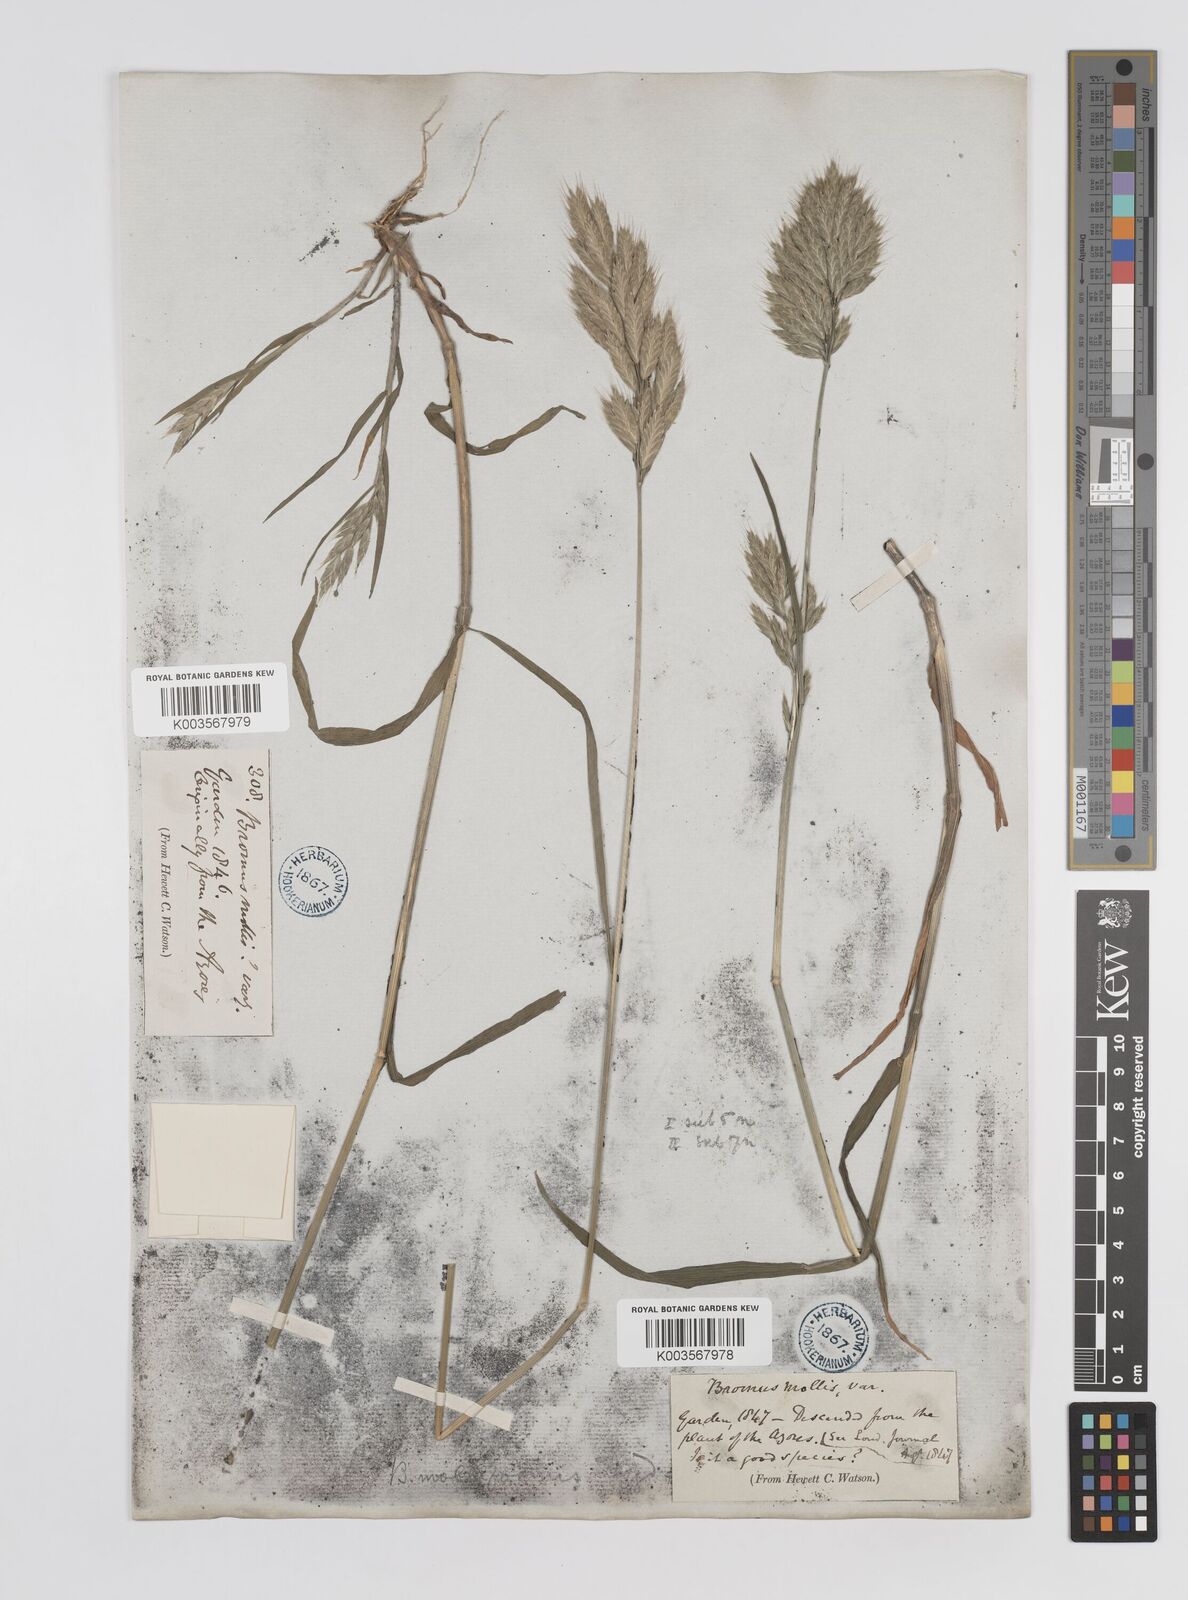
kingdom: Plantae
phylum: Tracheophyta
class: Liliopsida
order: Poales
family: Poaceae
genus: Bromus
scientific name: Bromus
